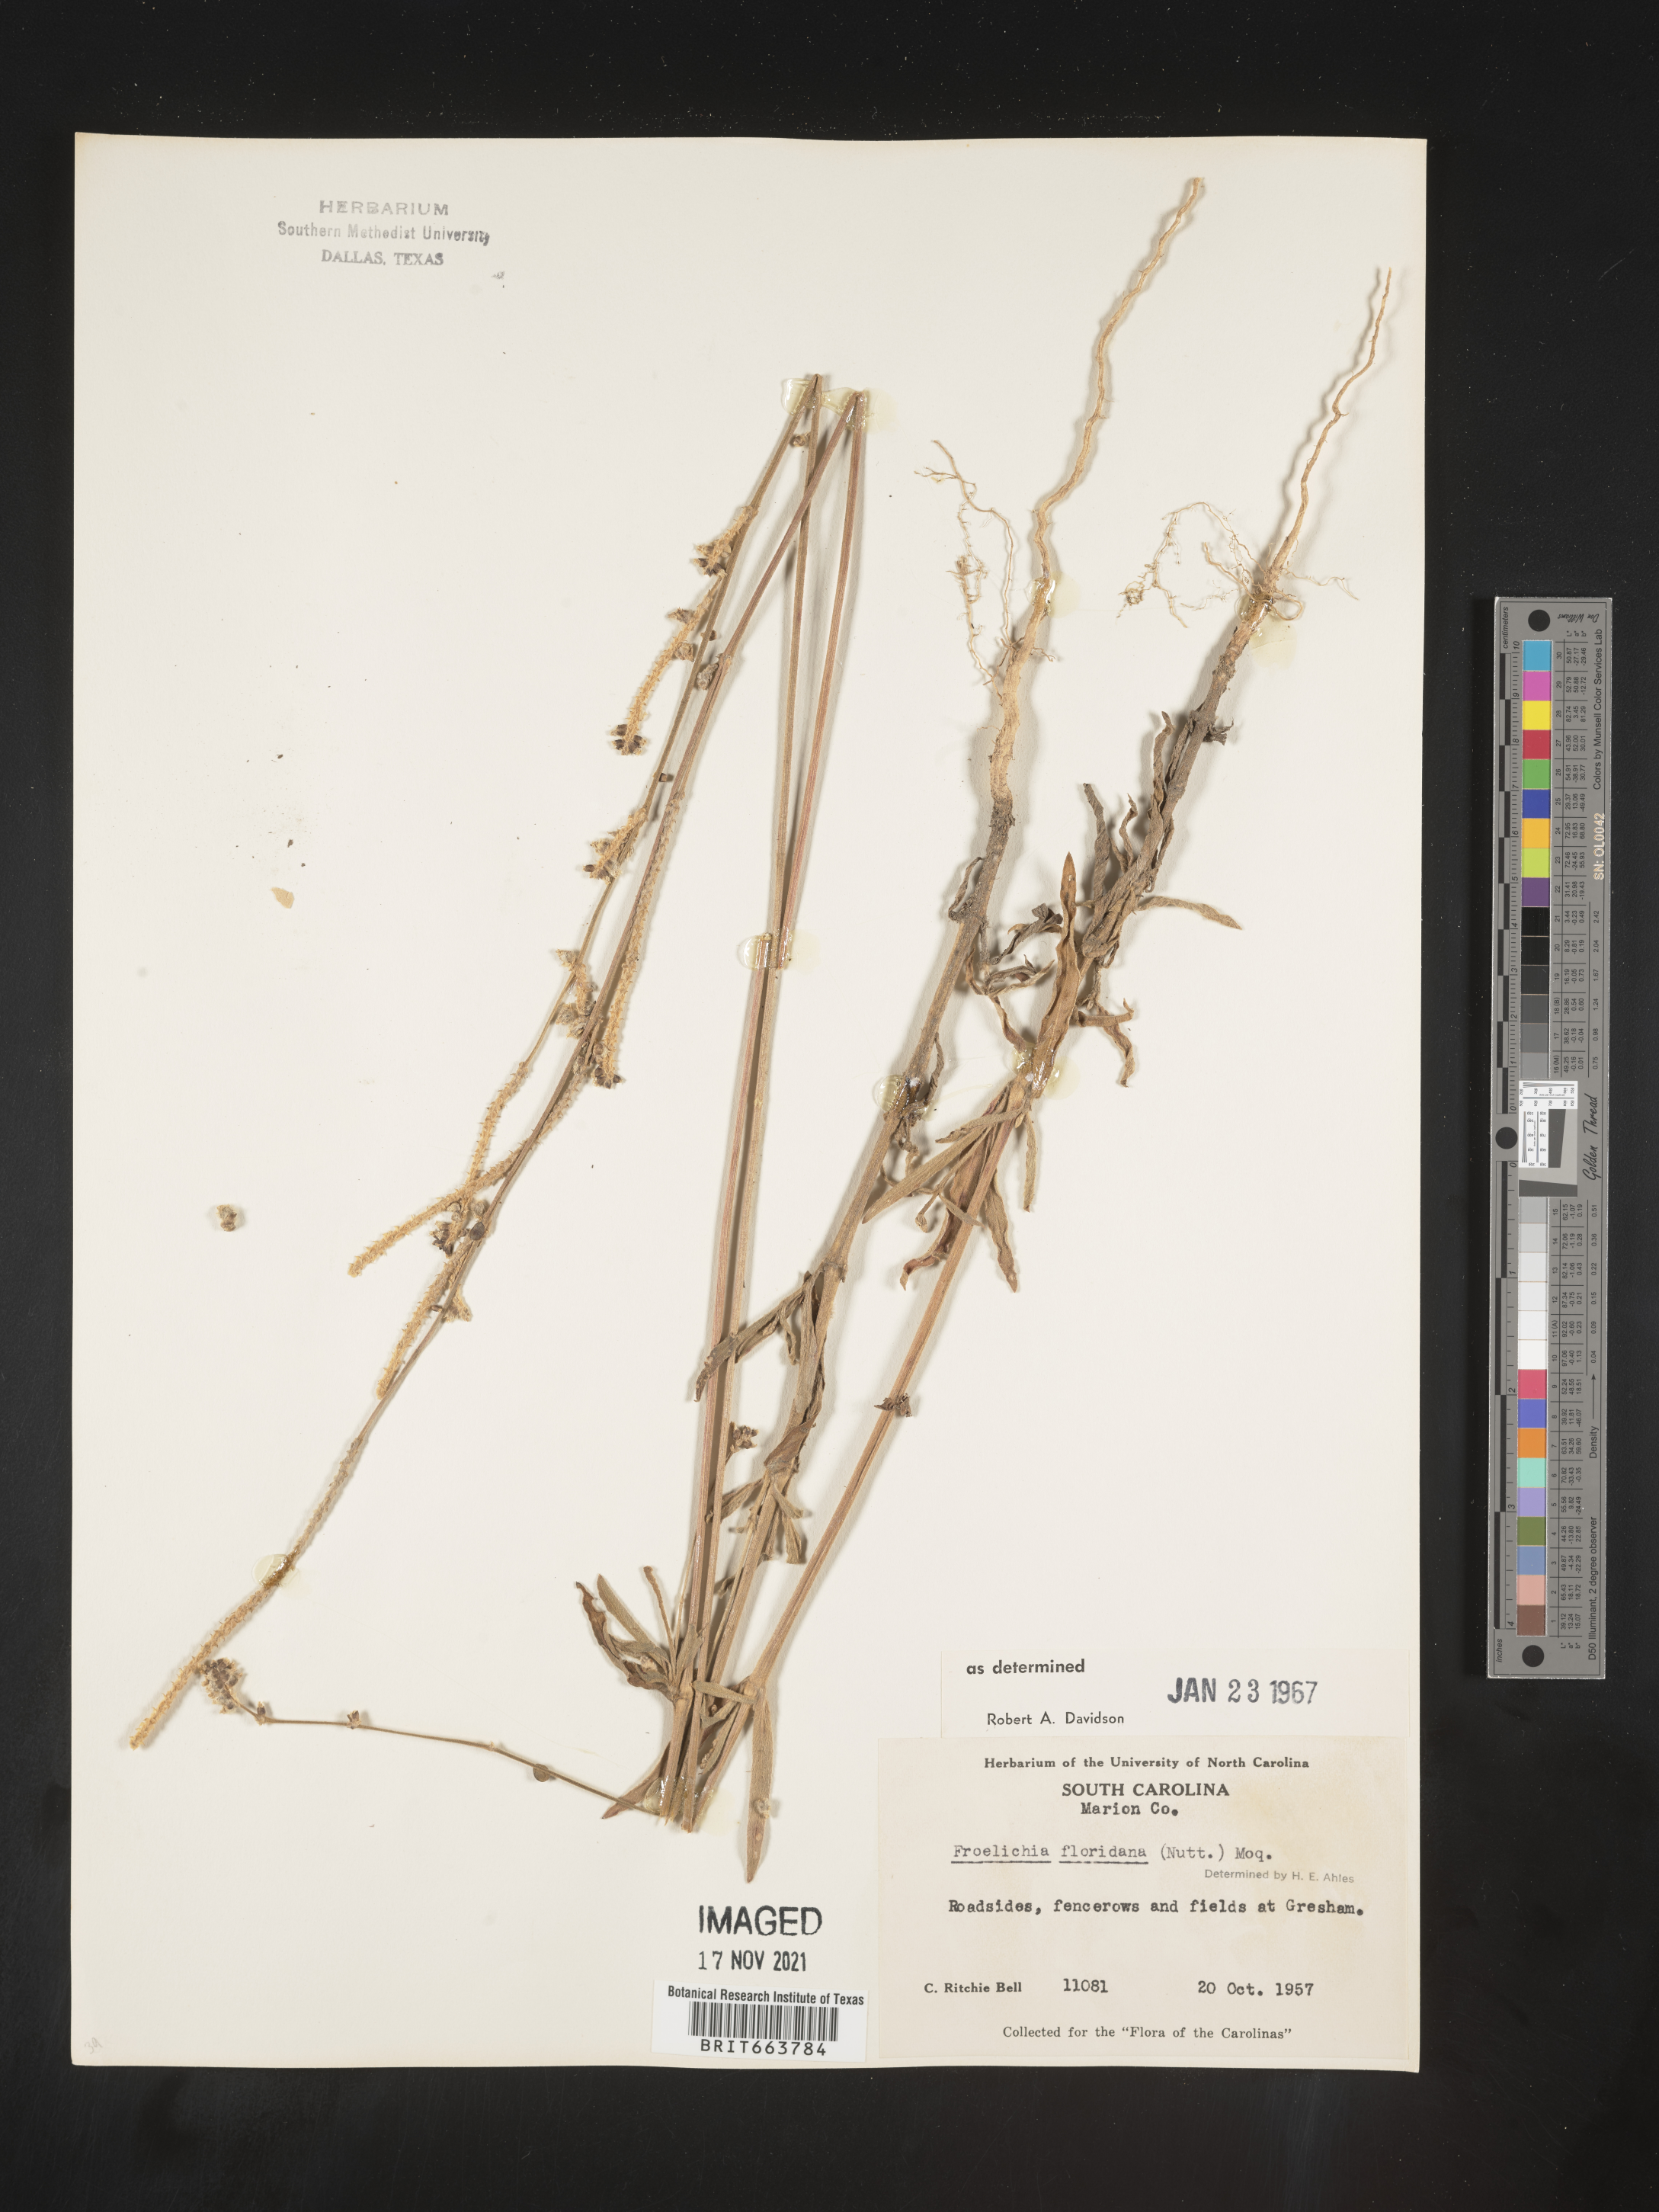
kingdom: Plantae
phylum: Tracheophyta
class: Magnoliopsida
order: Caryophyllales
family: Amaranthaceae
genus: Froelichia
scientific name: Froelichia floridana
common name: Florida snake-cotton
